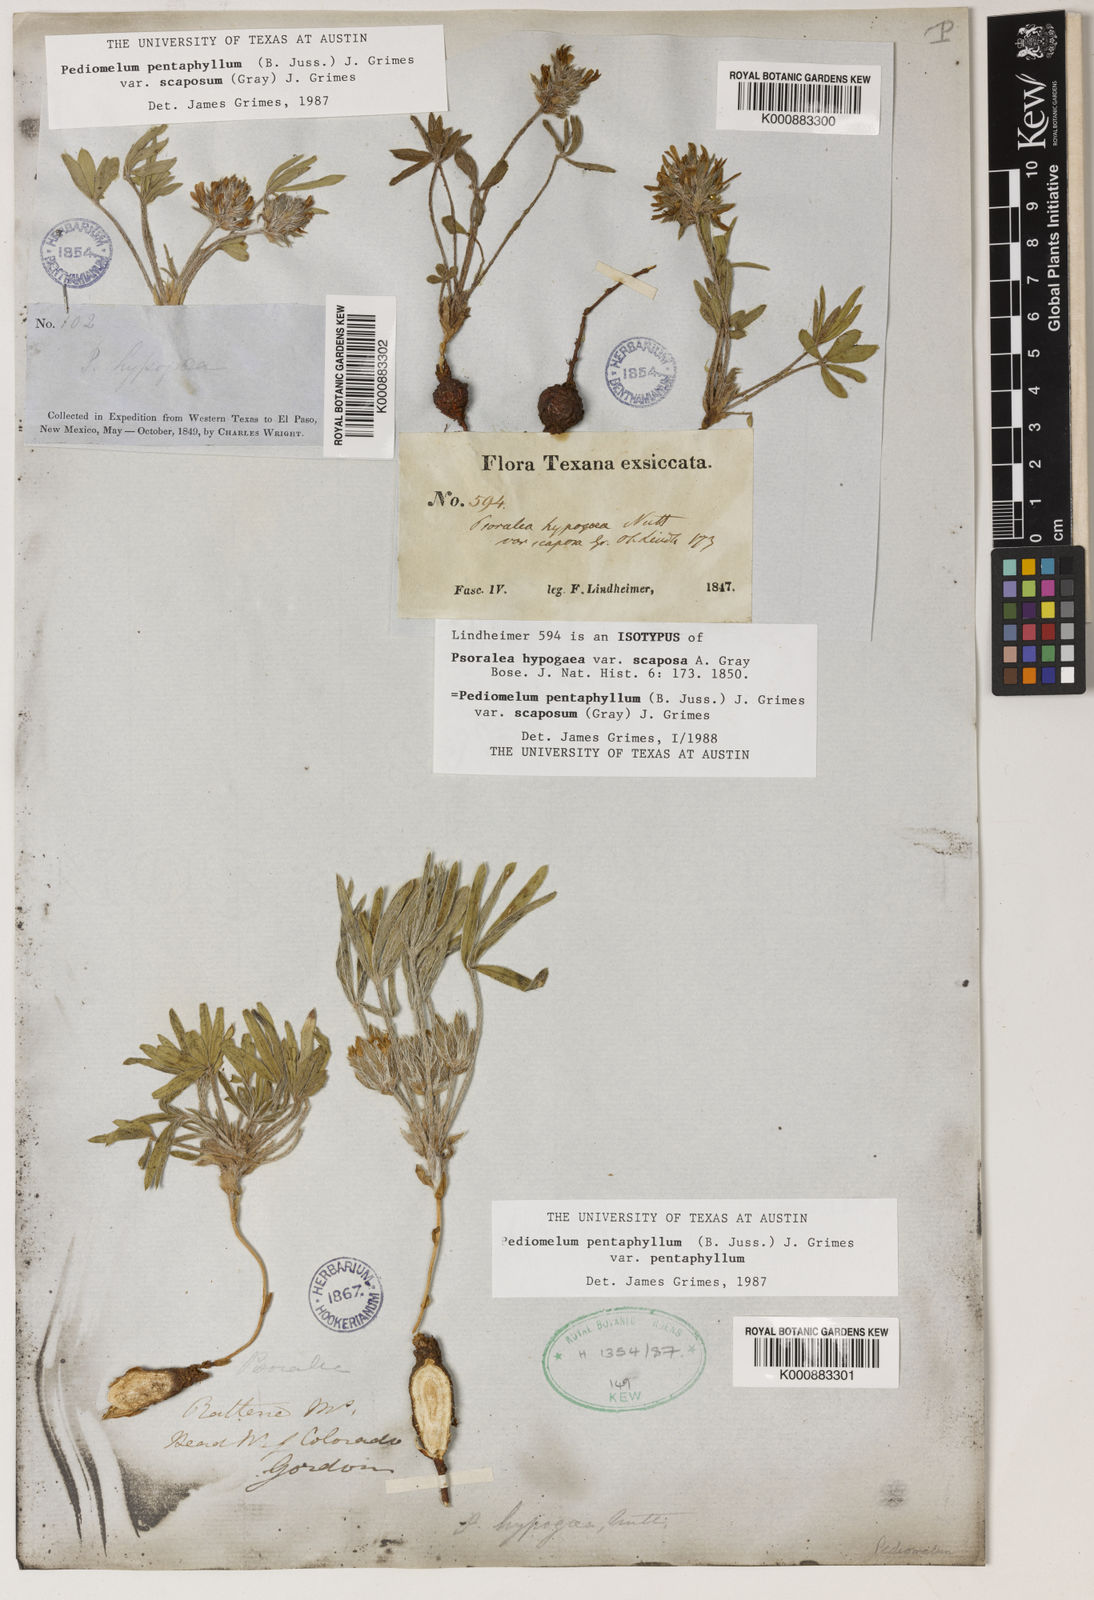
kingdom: Plantae
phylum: Tracheophyta
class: Magnoliopsida
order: Fabales
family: Fabaceae
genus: Pediomelum
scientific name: Pediomelum hypogaeum
